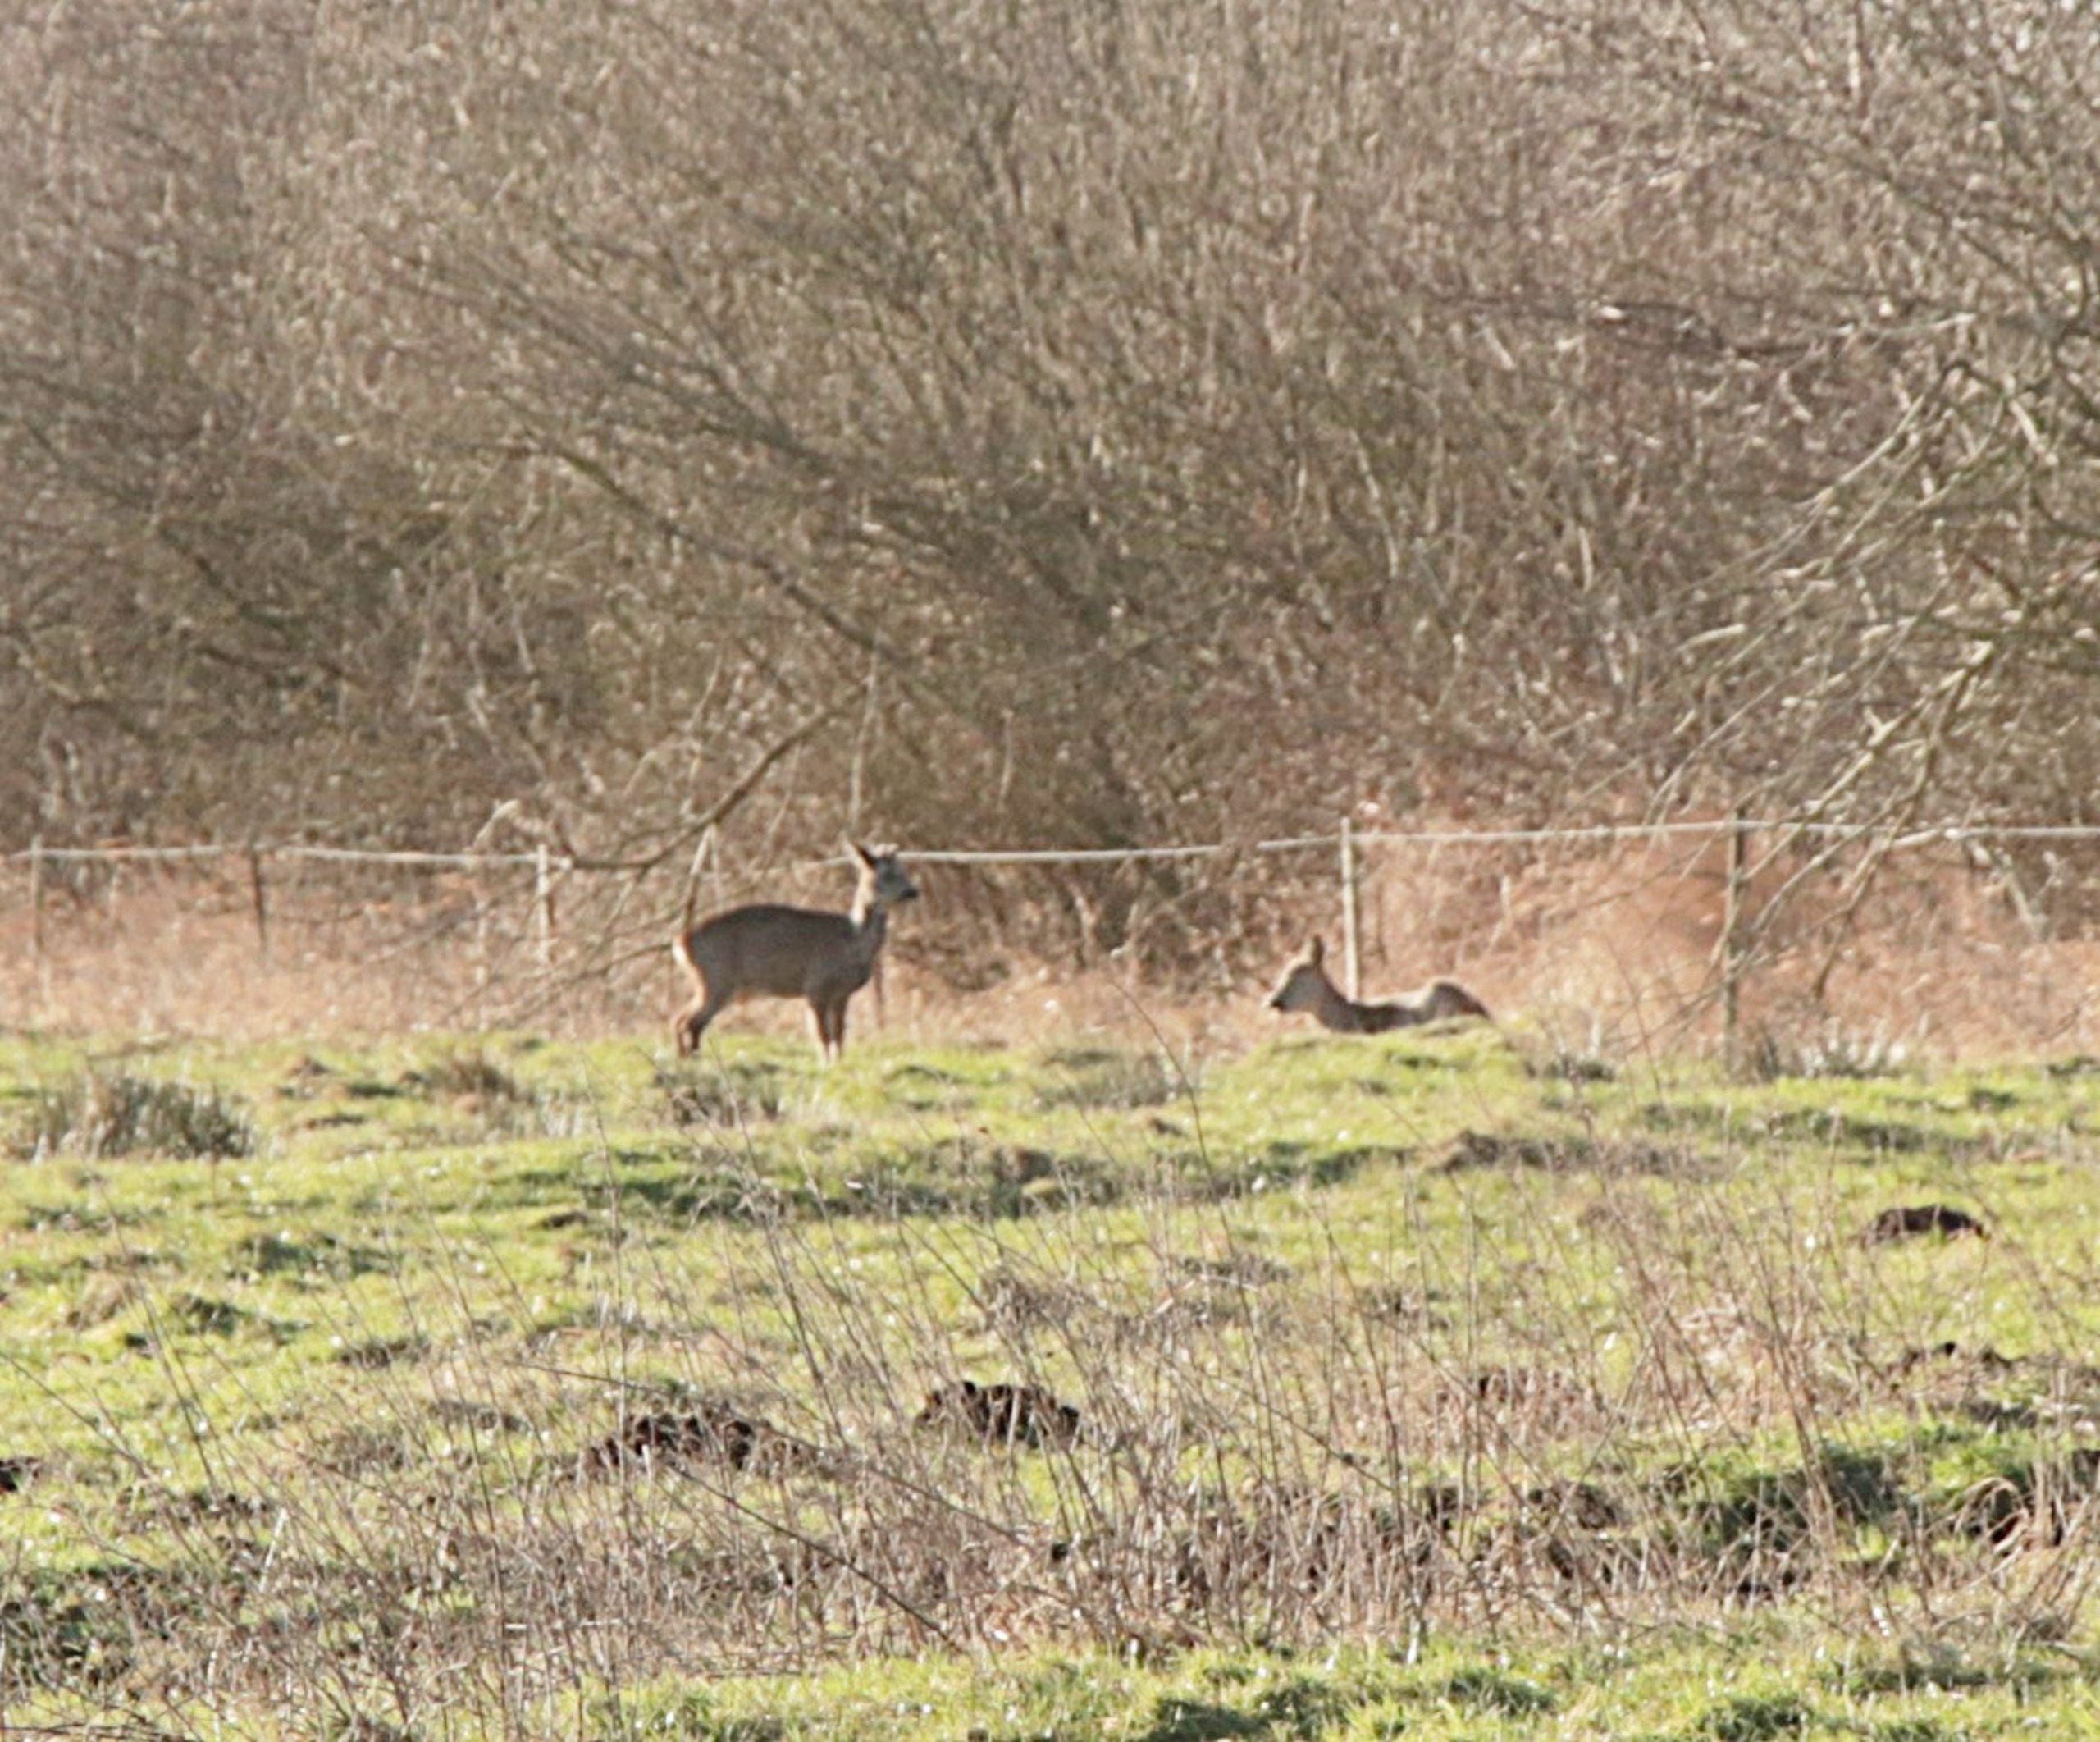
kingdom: Animalia
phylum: Chordata
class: Mammalia
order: Artiodactyla
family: Cervidae
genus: Capreolus
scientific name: Capreolus capreolus
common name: Rådyr
